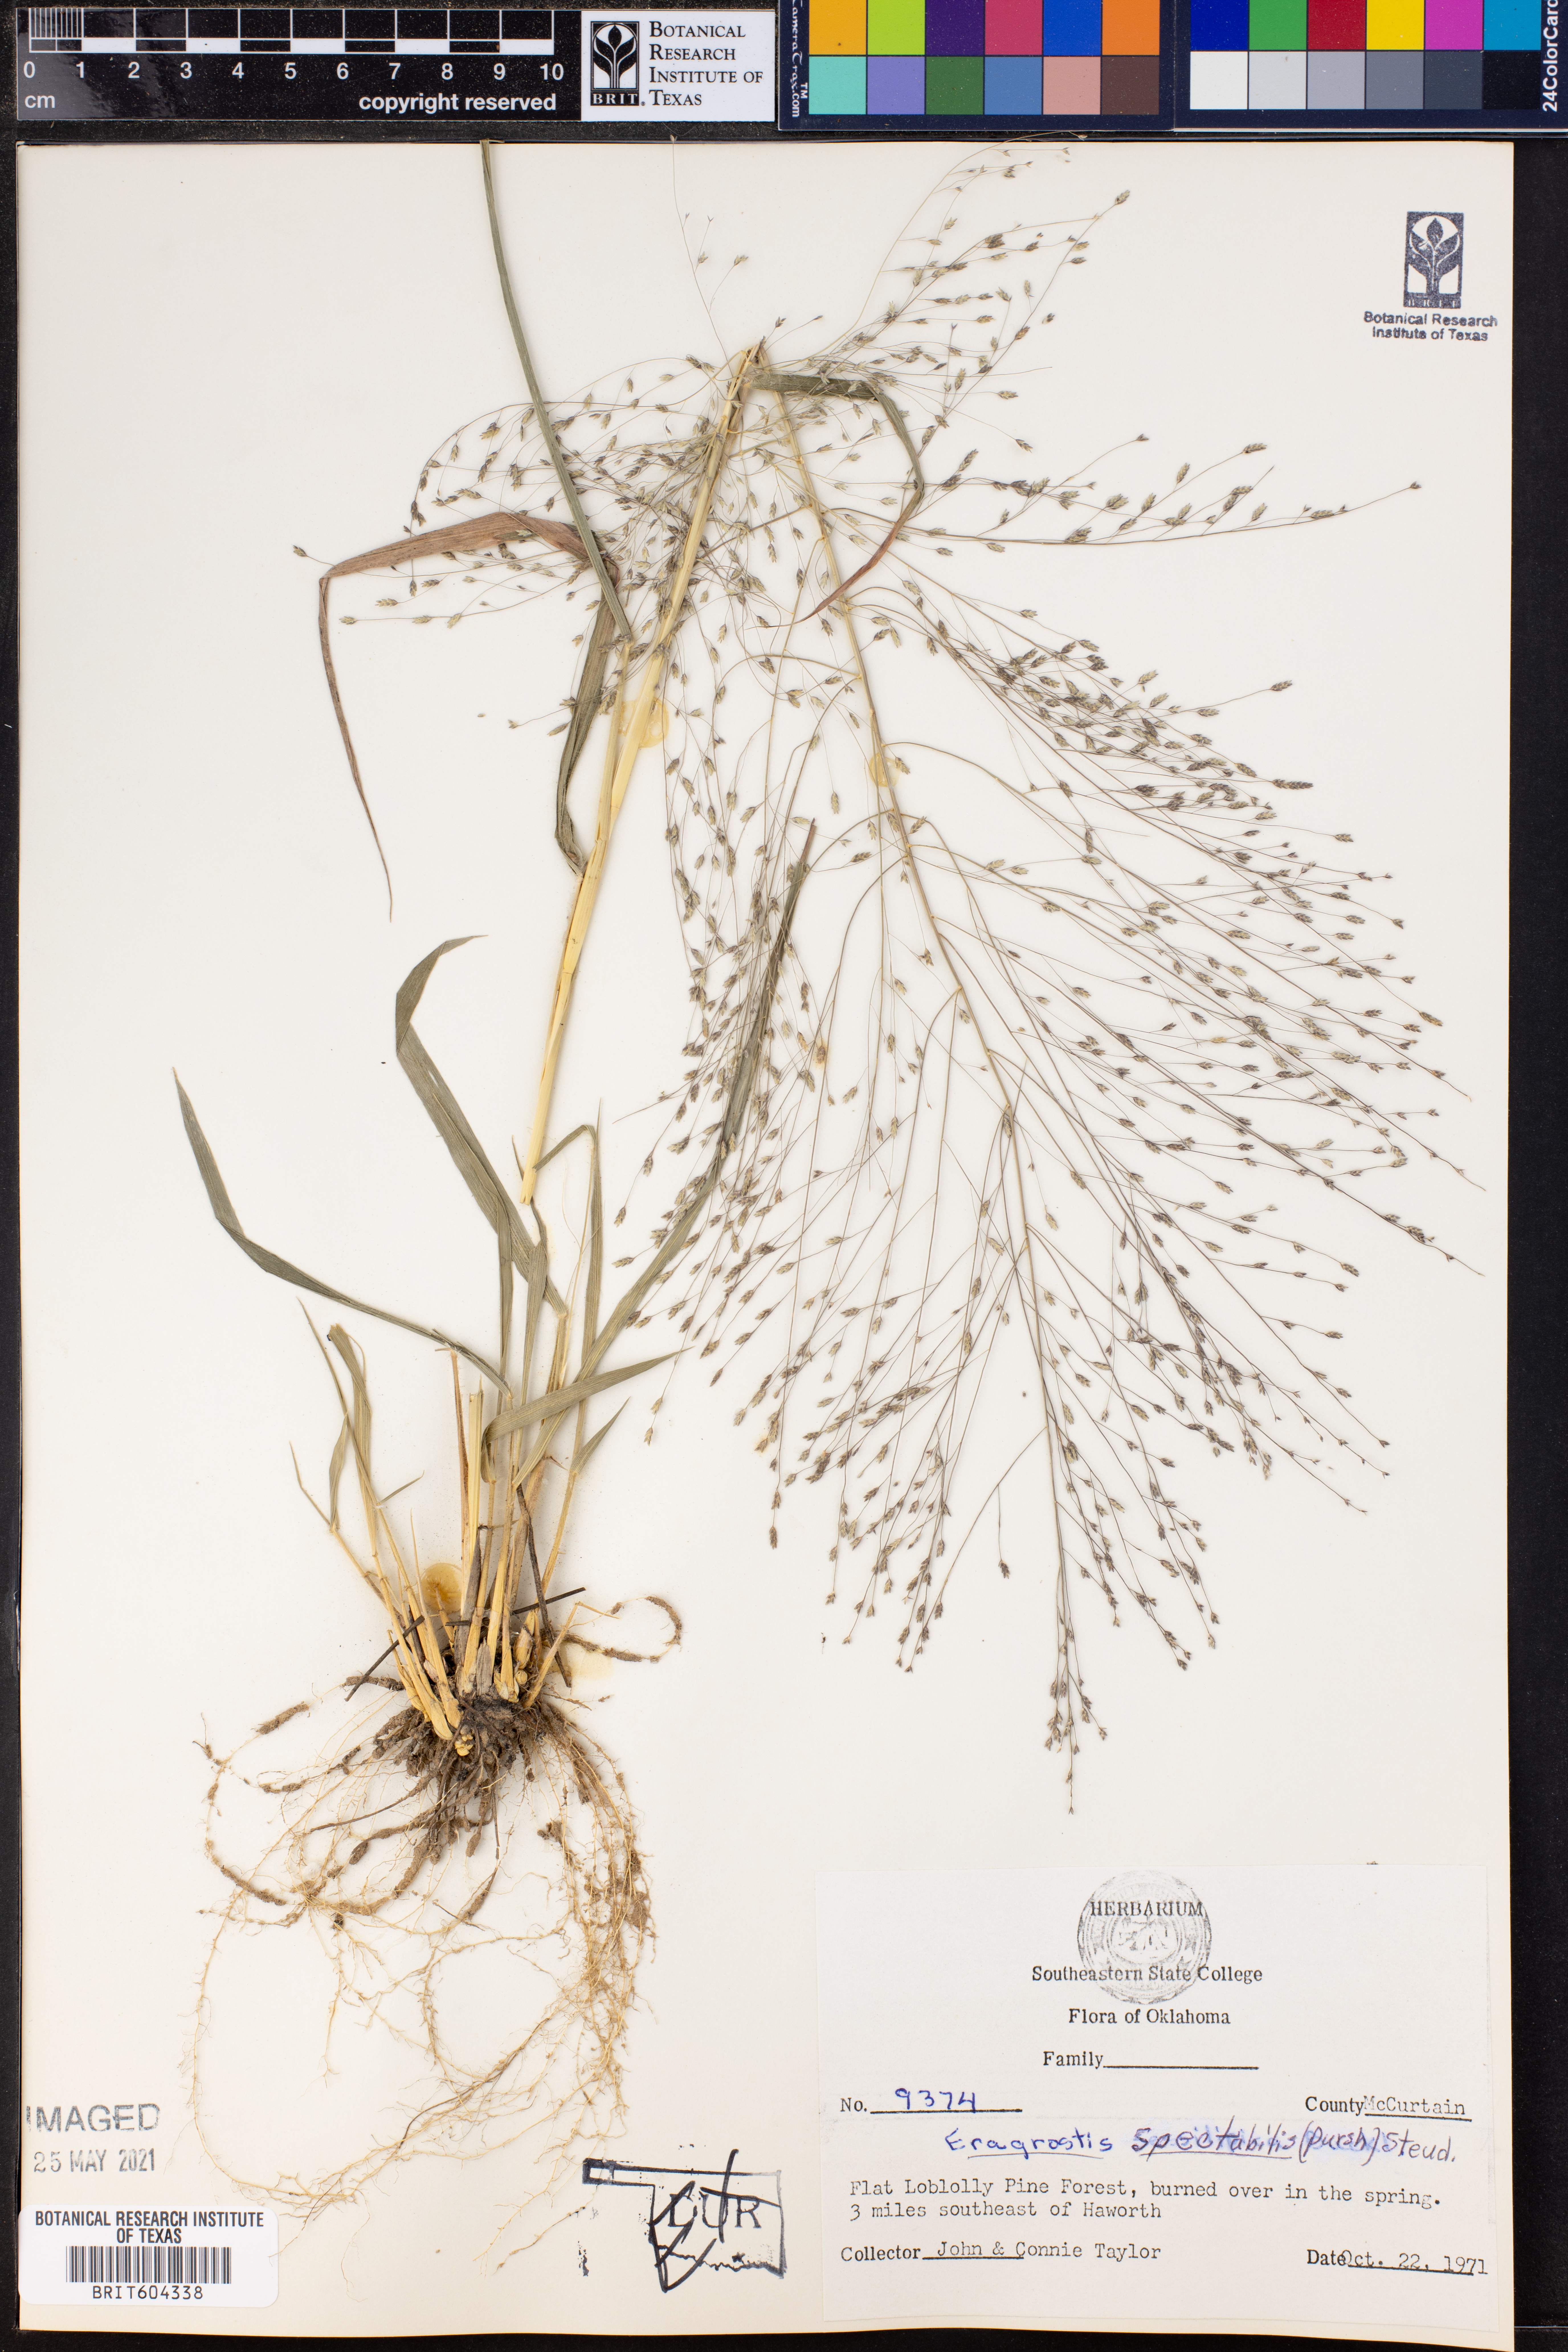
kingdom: Plantae
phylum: Tracheophyta
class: Liliopsida
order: Poales
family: Poaceae
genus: Eragrostis
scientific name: Eragrostis spectabilis
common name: Petticoat-climber
